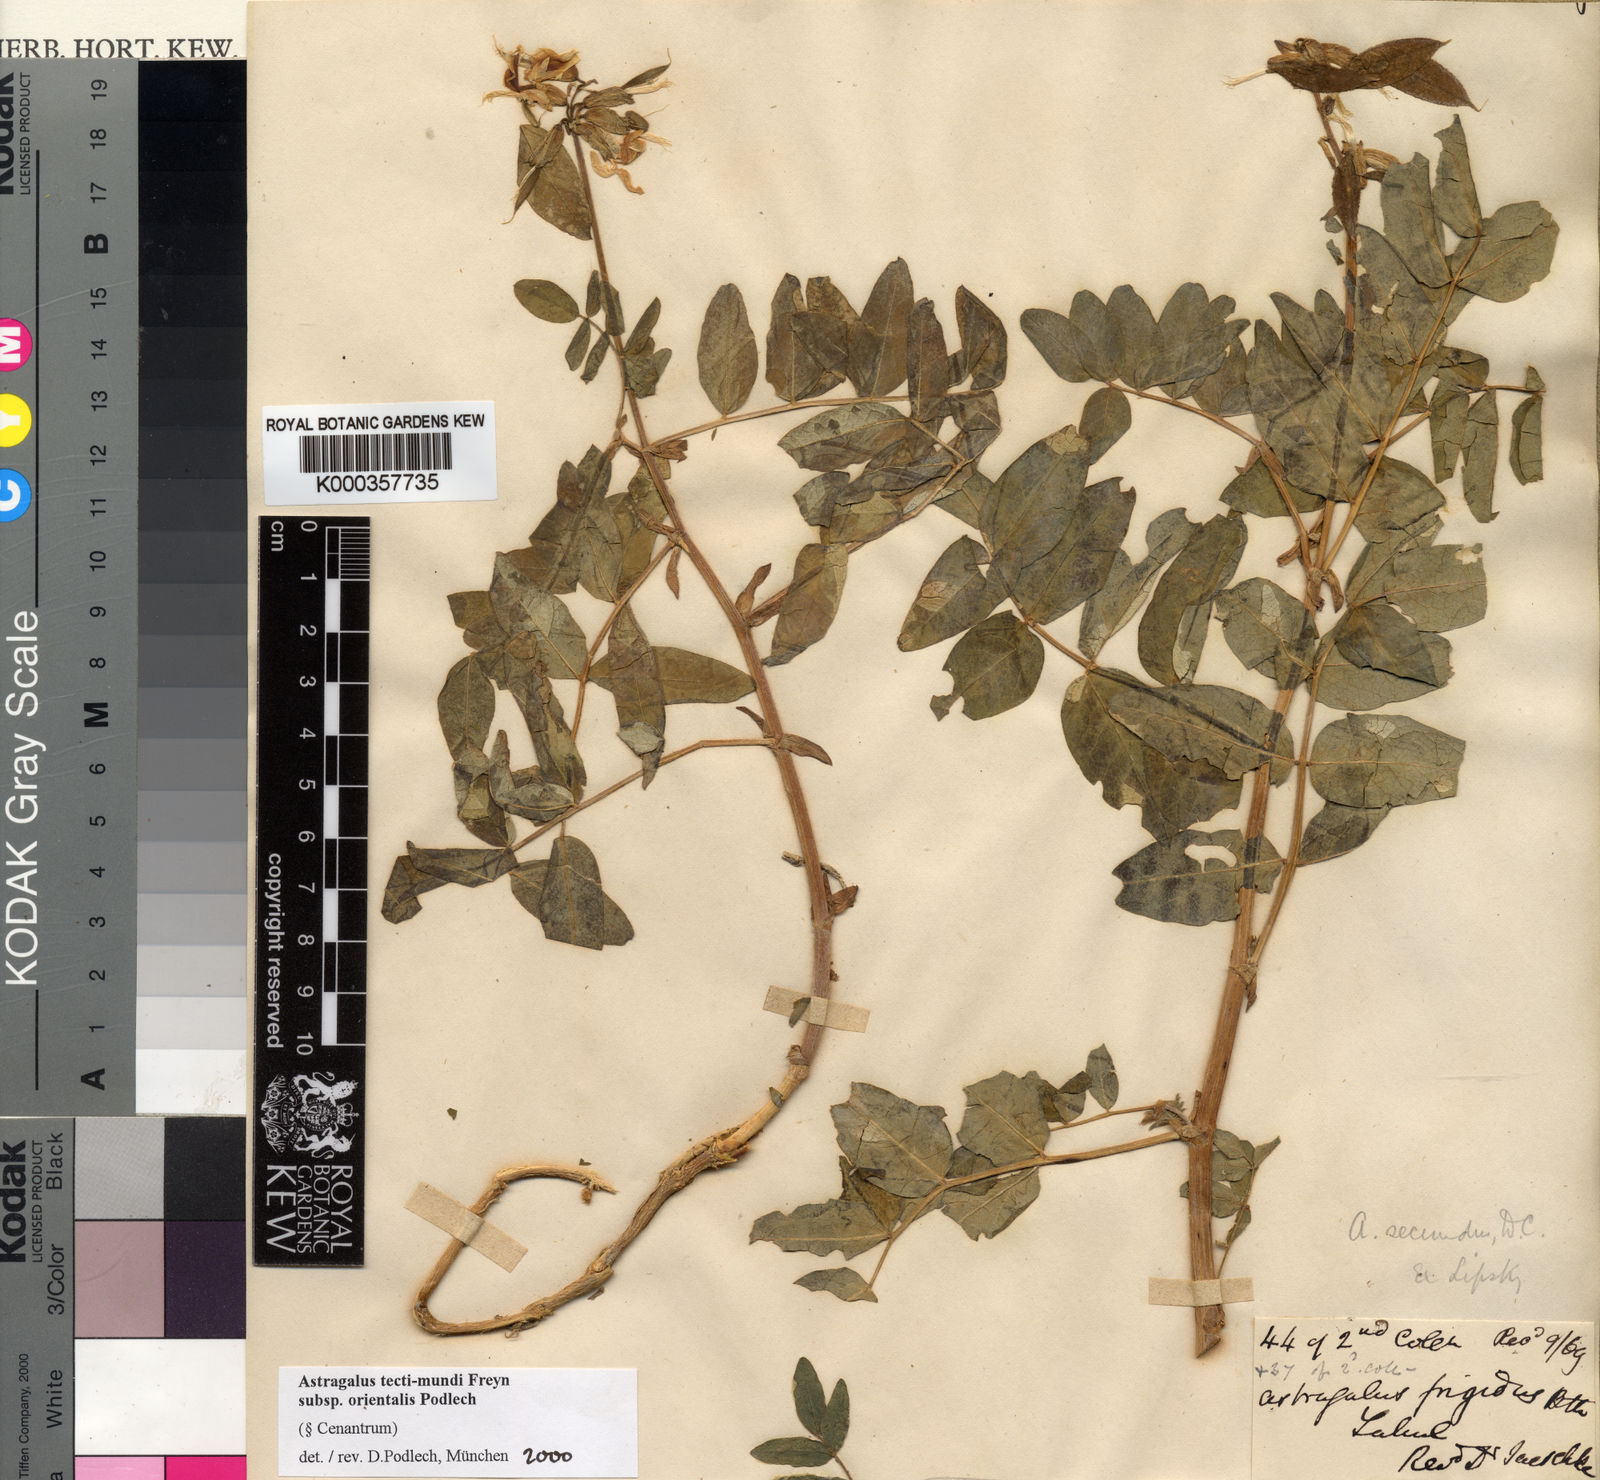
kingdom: Plantae
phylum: Tracheophyta
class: Magnoliopsida
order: Fabales
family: Fabaceae
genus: Astragalus
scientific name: Astragalus tecti-mundi
